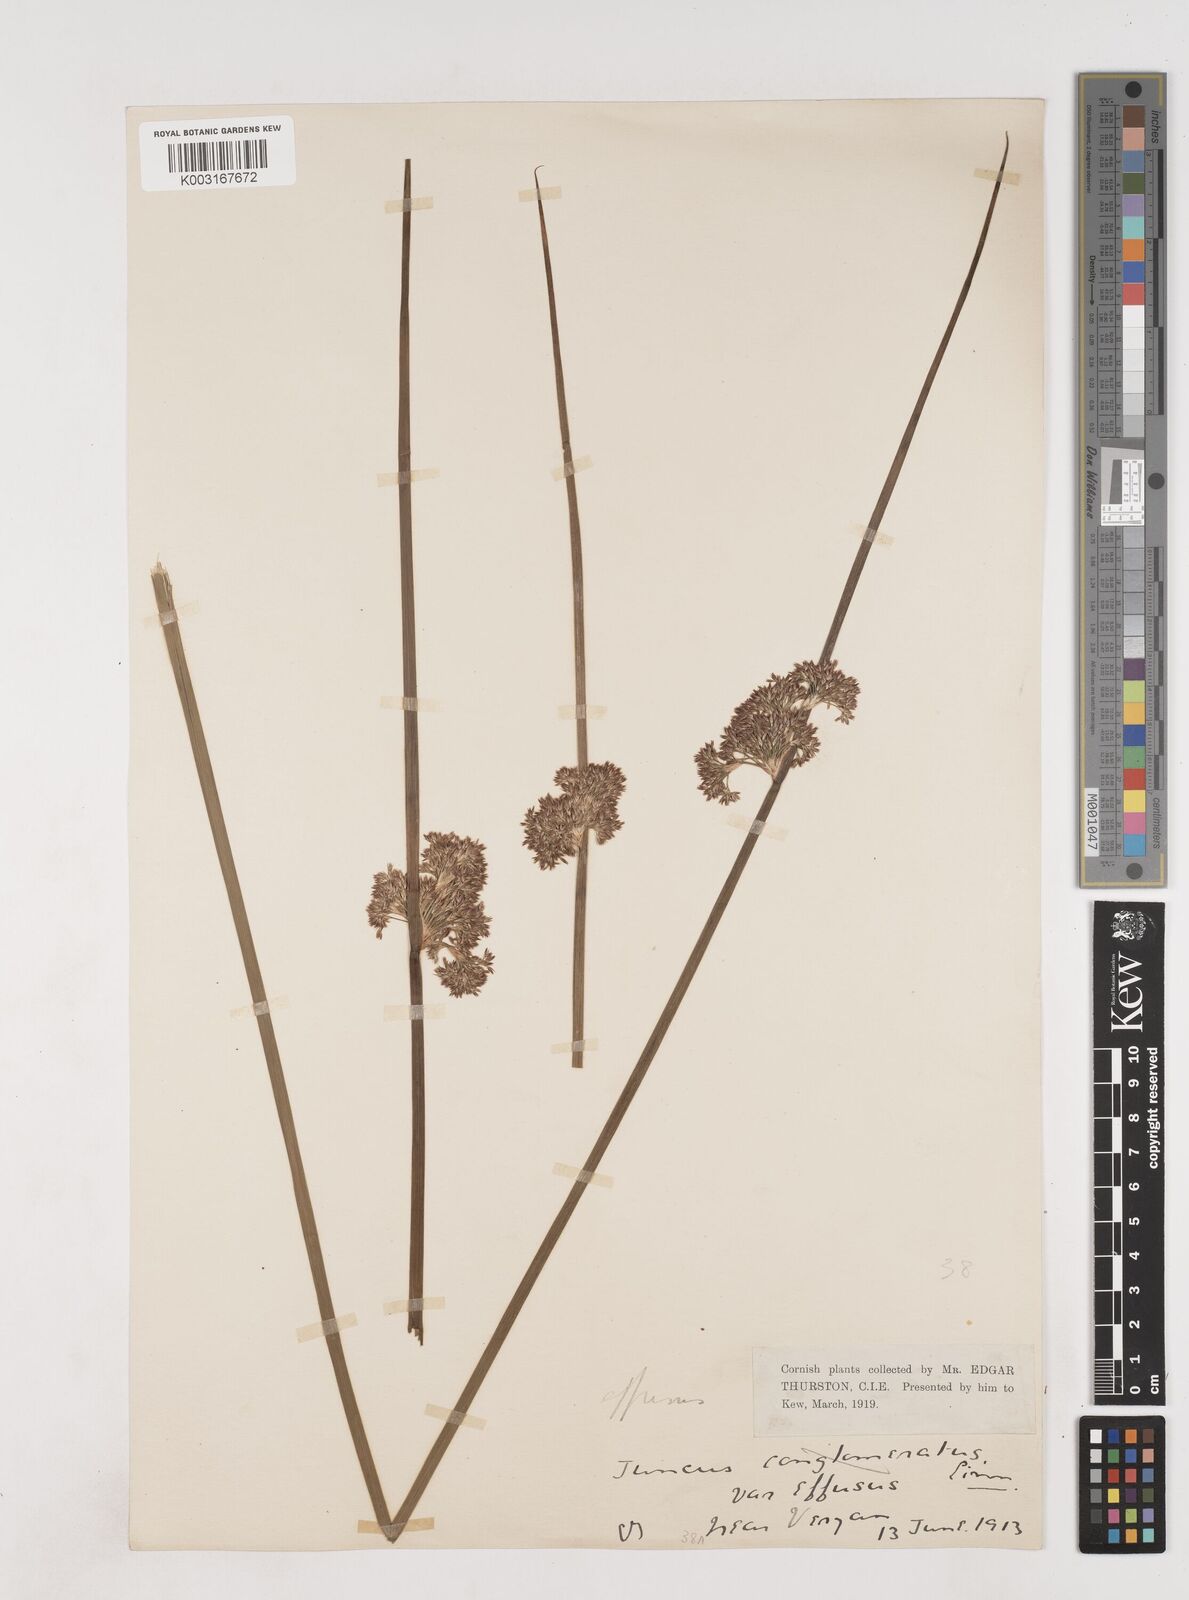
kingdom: Plantae
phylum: Tracheophyta
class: Liliopsida
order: Poales
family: Juncaceae
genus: Juncus
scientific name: Juncus effusus
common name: Soft rush
